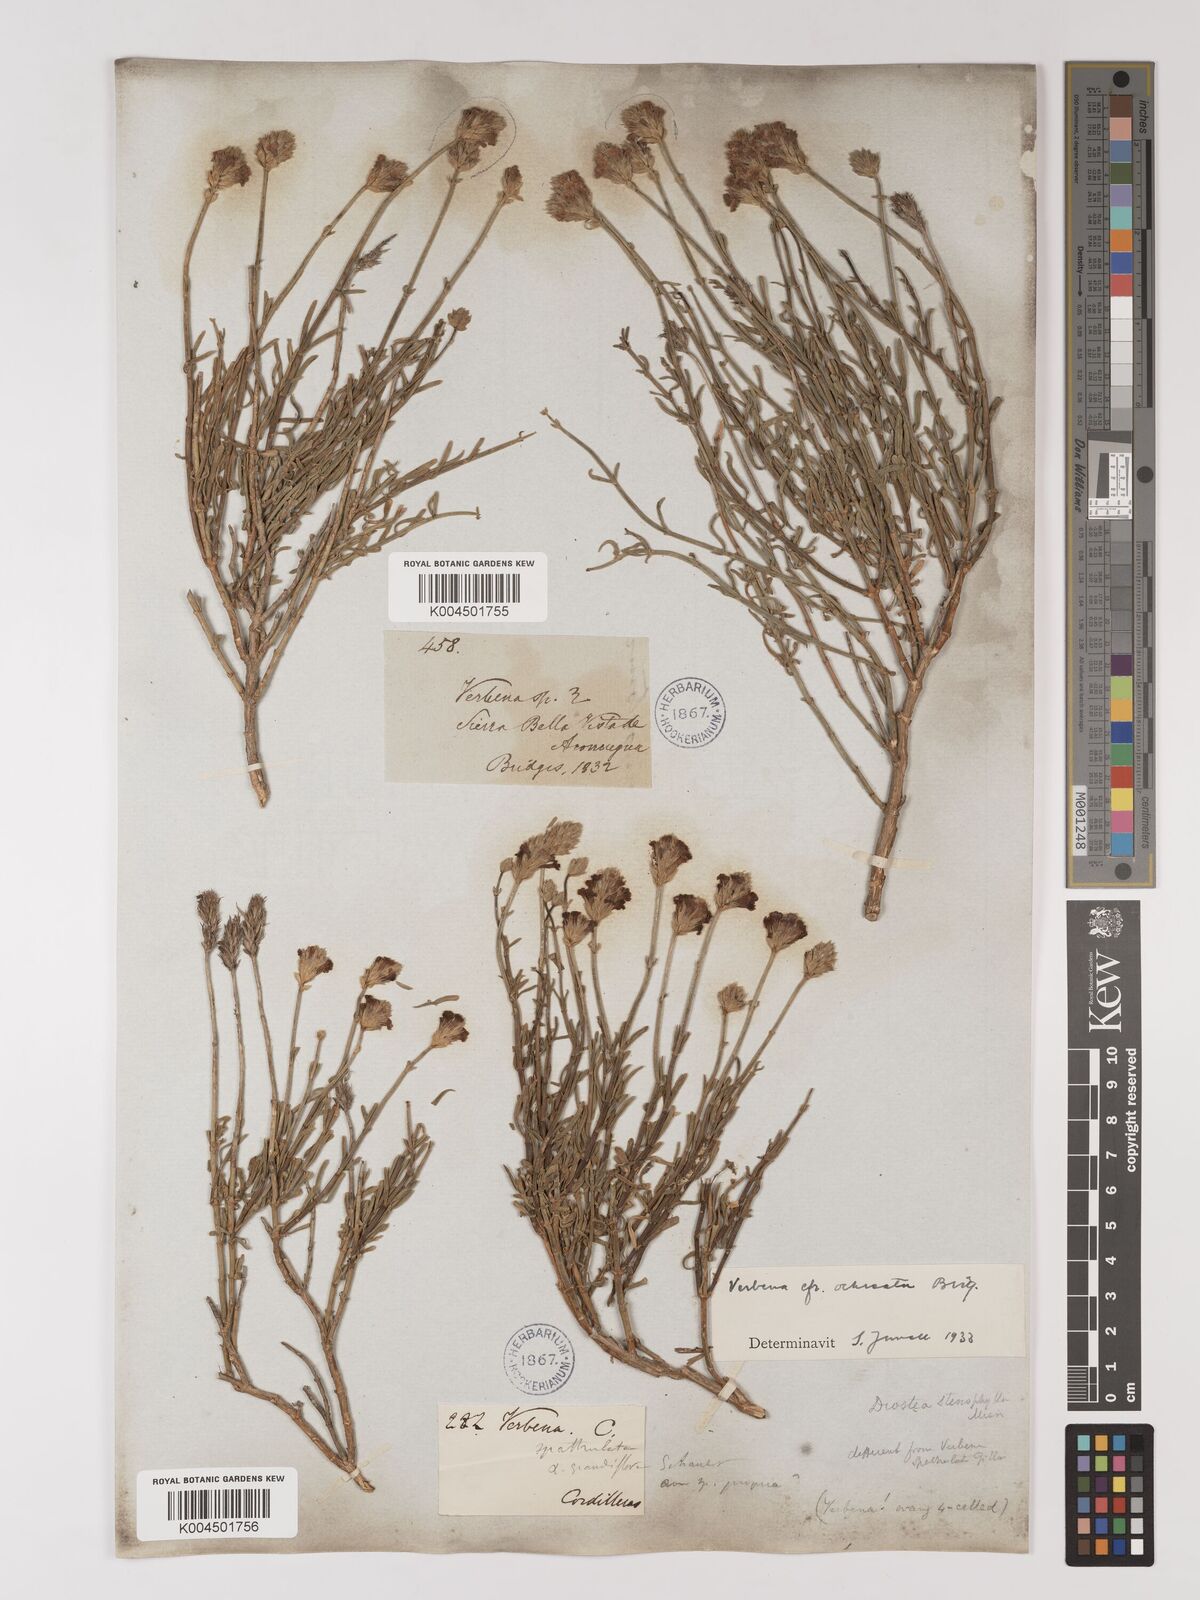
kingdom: Plantae
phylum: Tracheophyta
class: Magnoliopsida
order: Lamiales
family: Verbenaceae
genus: Junellia
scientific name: Junellia spathulata
